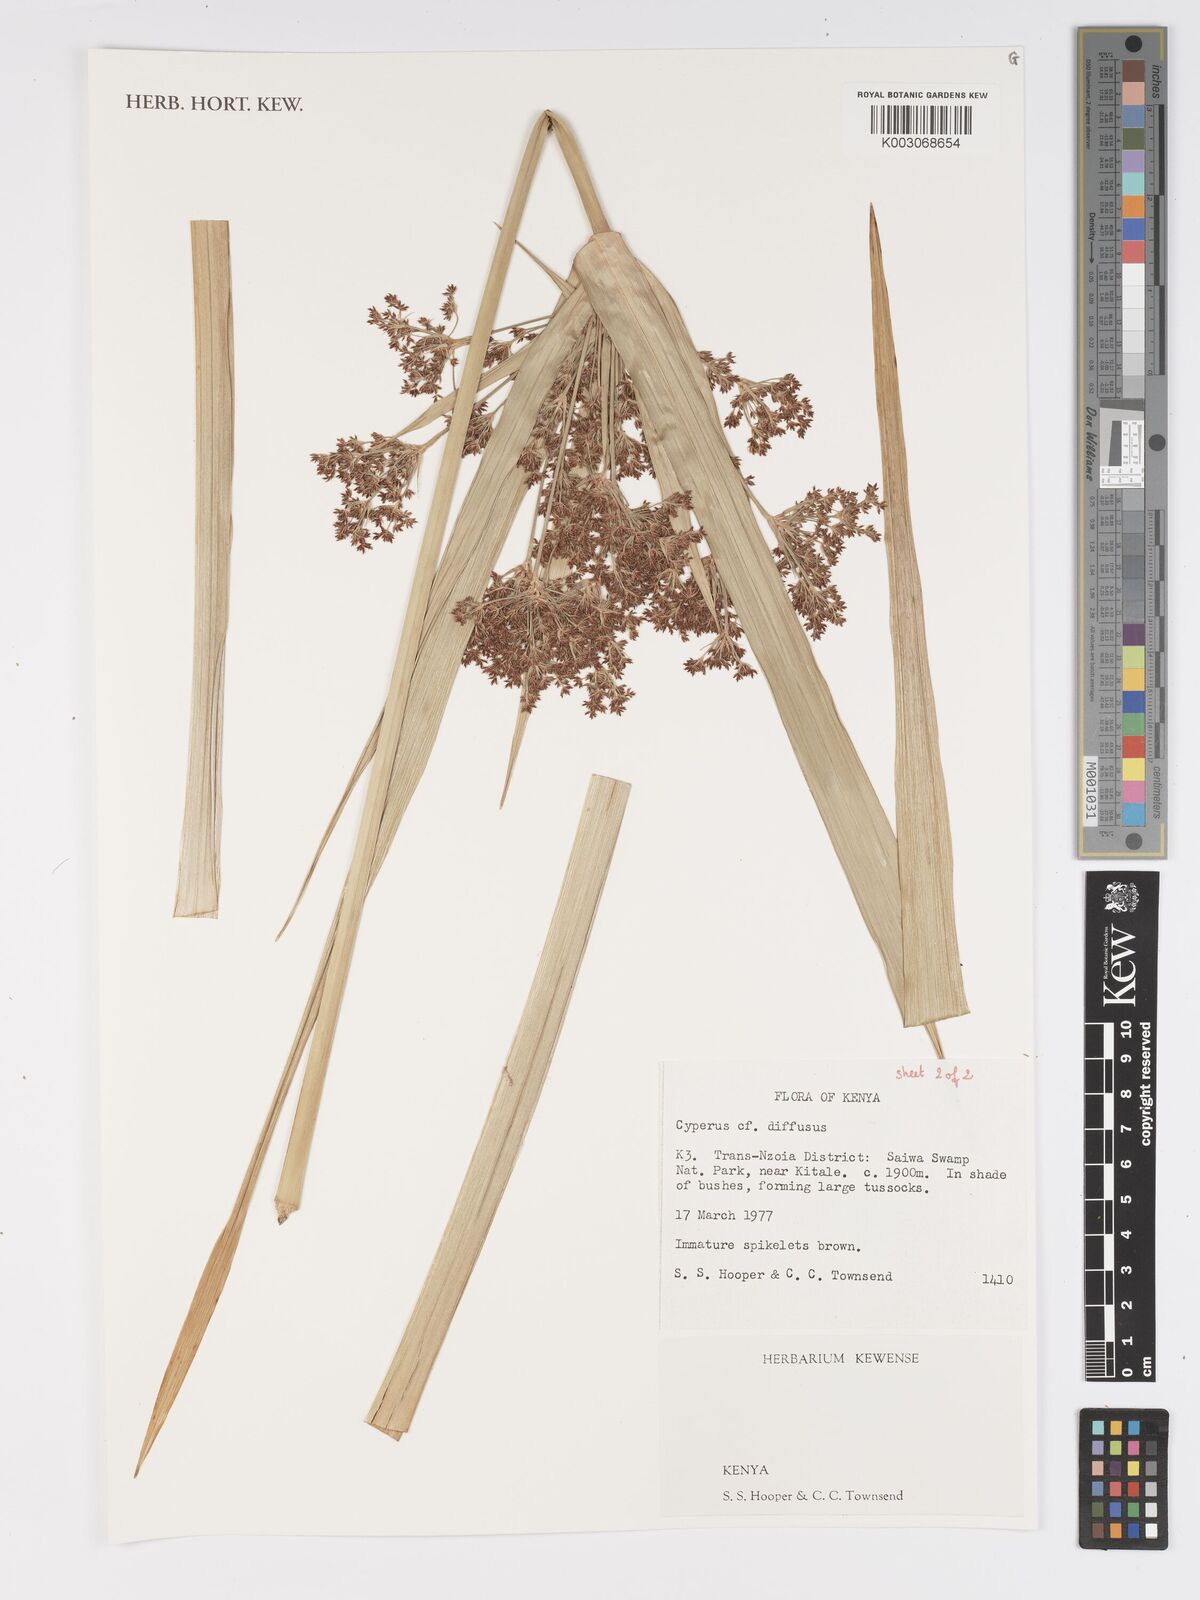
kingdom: Plantae
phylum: Tracheophyta
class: Liliopsida
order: Poales
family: Cyperaceae
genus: Cyperus
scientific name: Cyperus laxus
